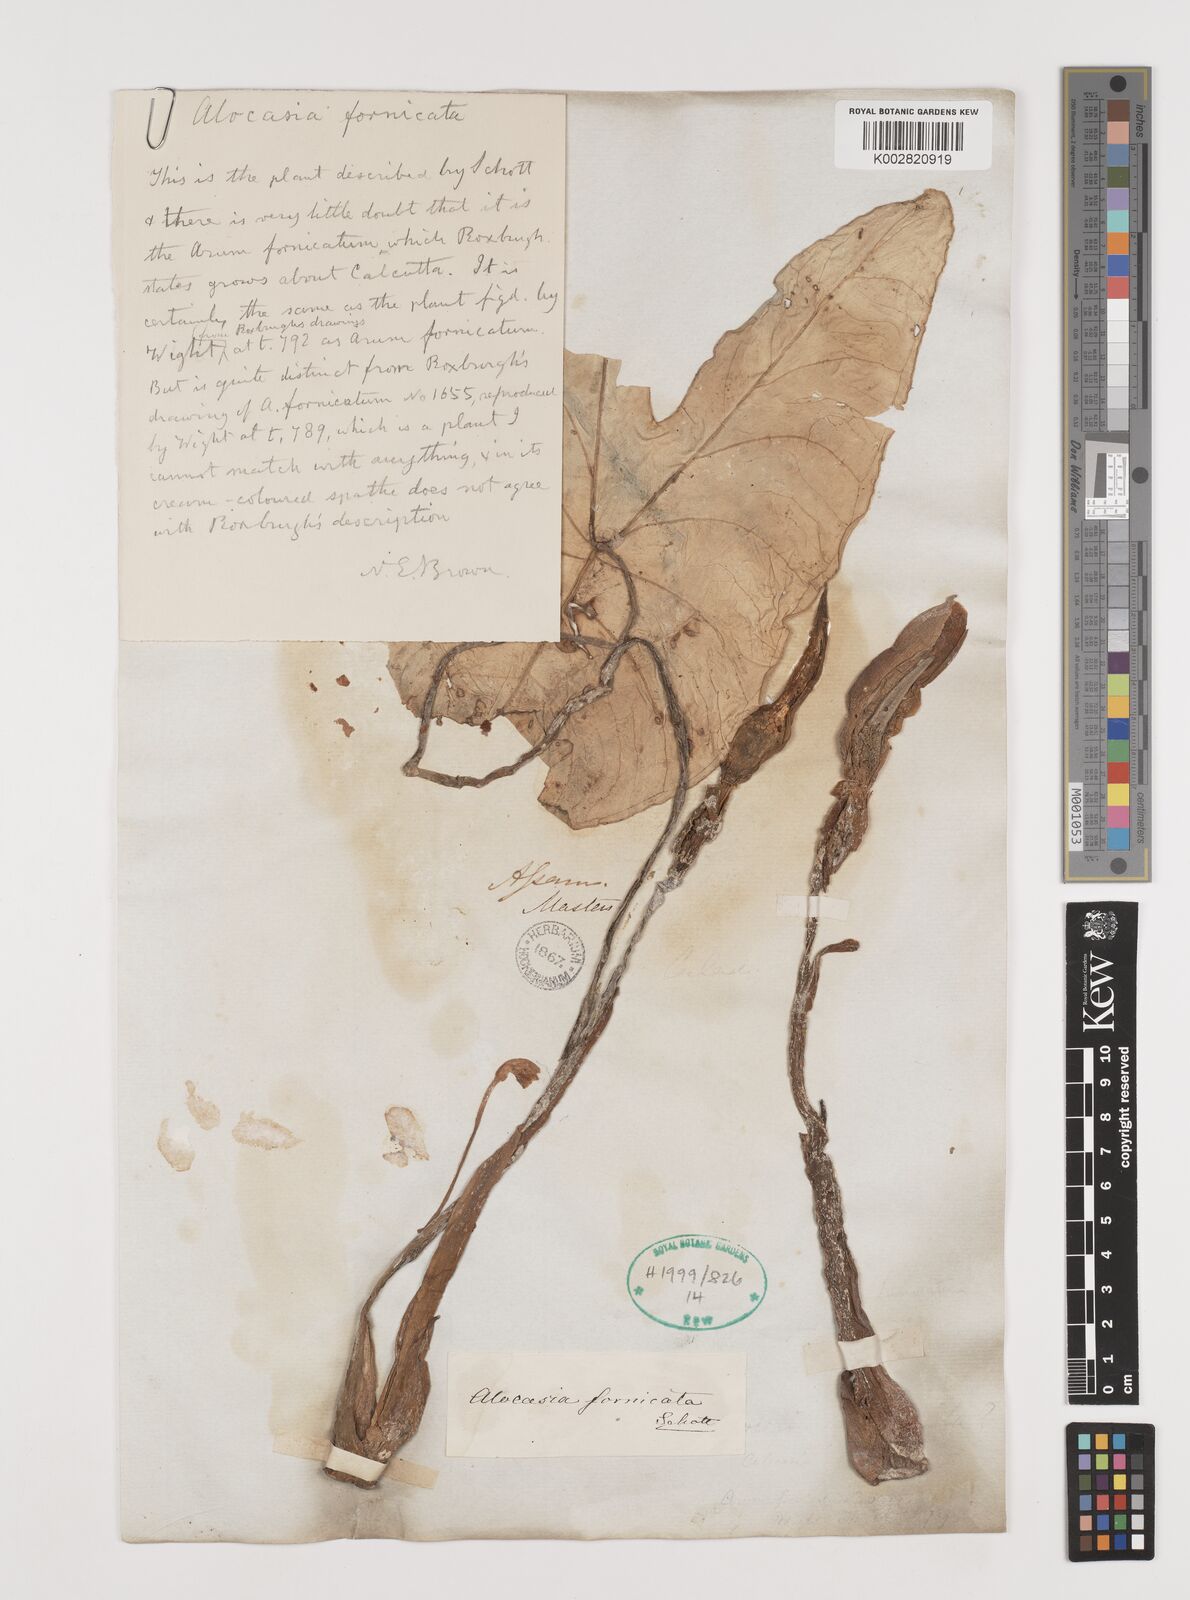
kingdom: Plantae
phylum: Tracheophyta
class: Liliopsida
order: Alismatales
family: Araceae
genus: Alocasia
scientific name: Alocasia fornicata
